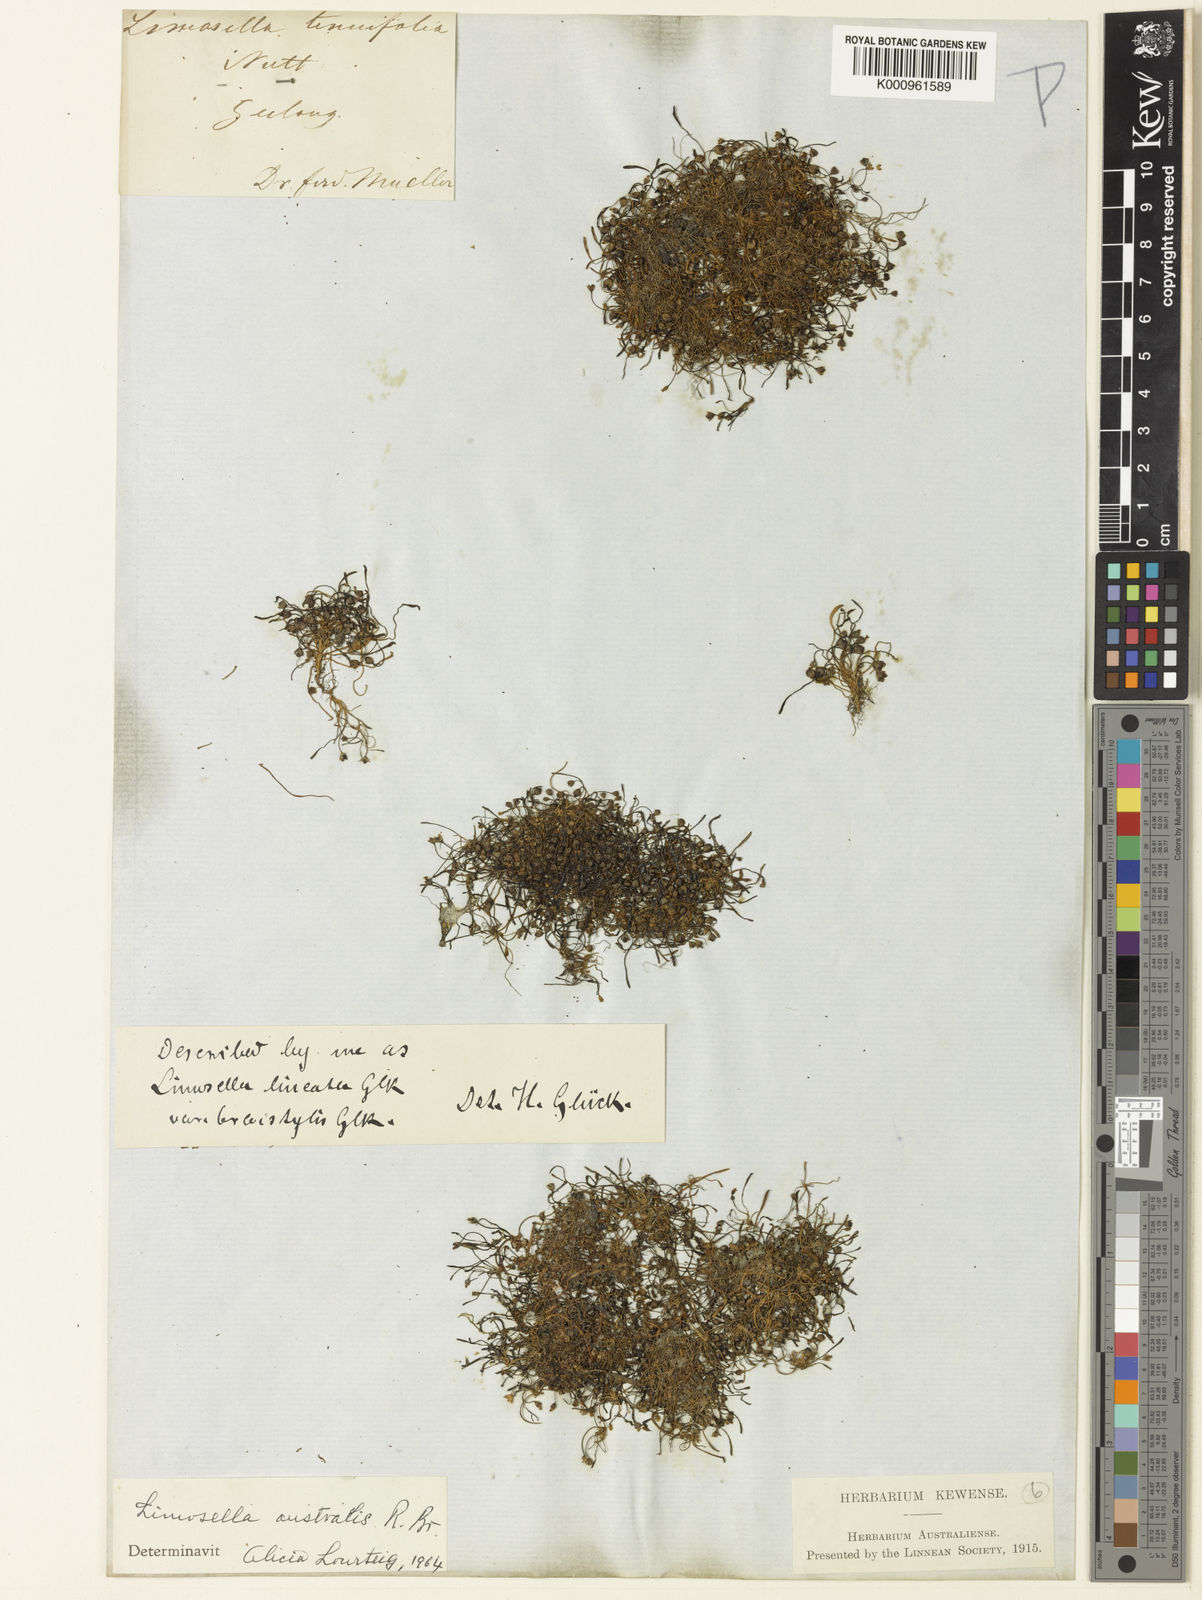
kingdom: Plantae
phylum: Tracheophyta
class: Magnoliopsida
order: Lamiales
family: Scrophulariaceae
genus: Limosella
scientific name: Limosella australis
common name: Welsh mudwort
